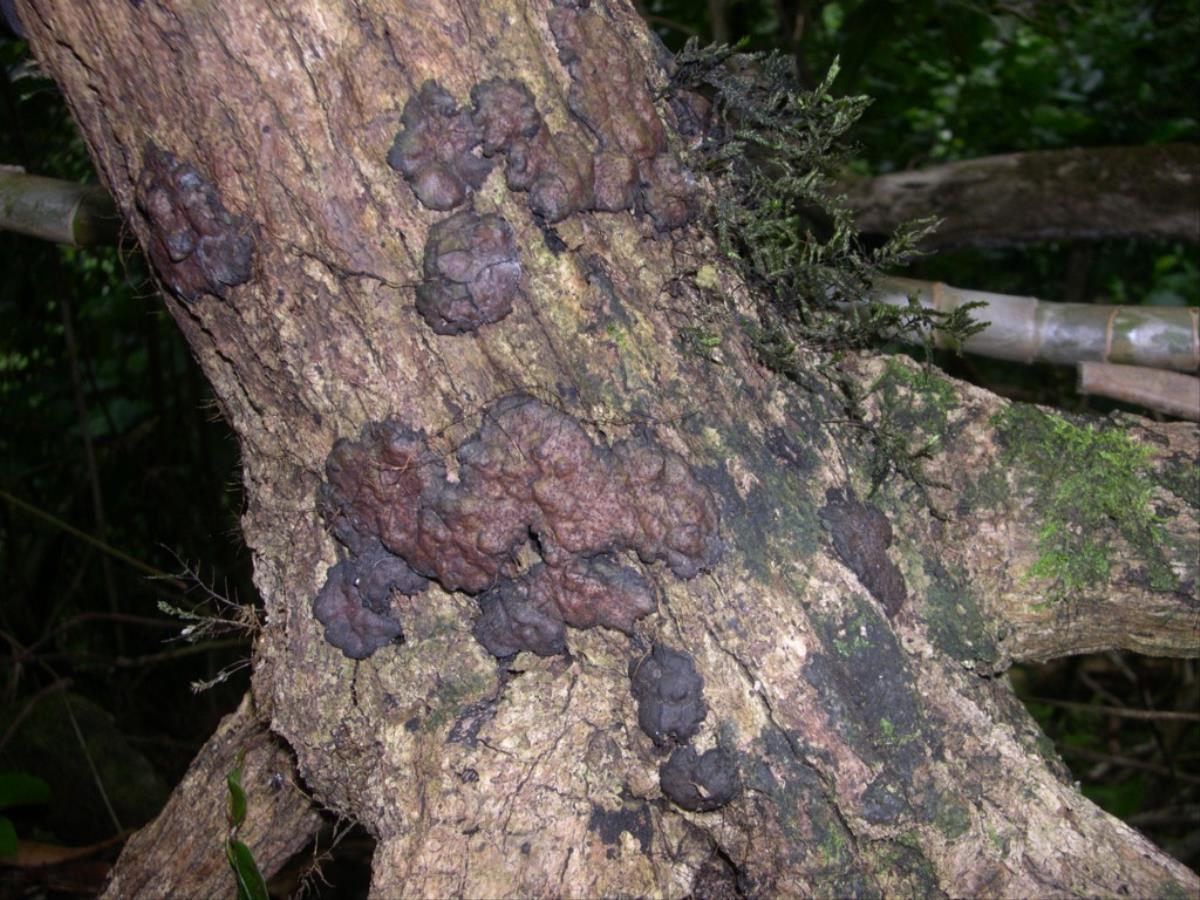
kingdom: Fungi
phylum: Ascomycota
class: Sordariomycetes
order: Xylariales
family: Xylariaceae
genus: Kretzschmaria
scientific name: Kretzschmaria pavimentosa
